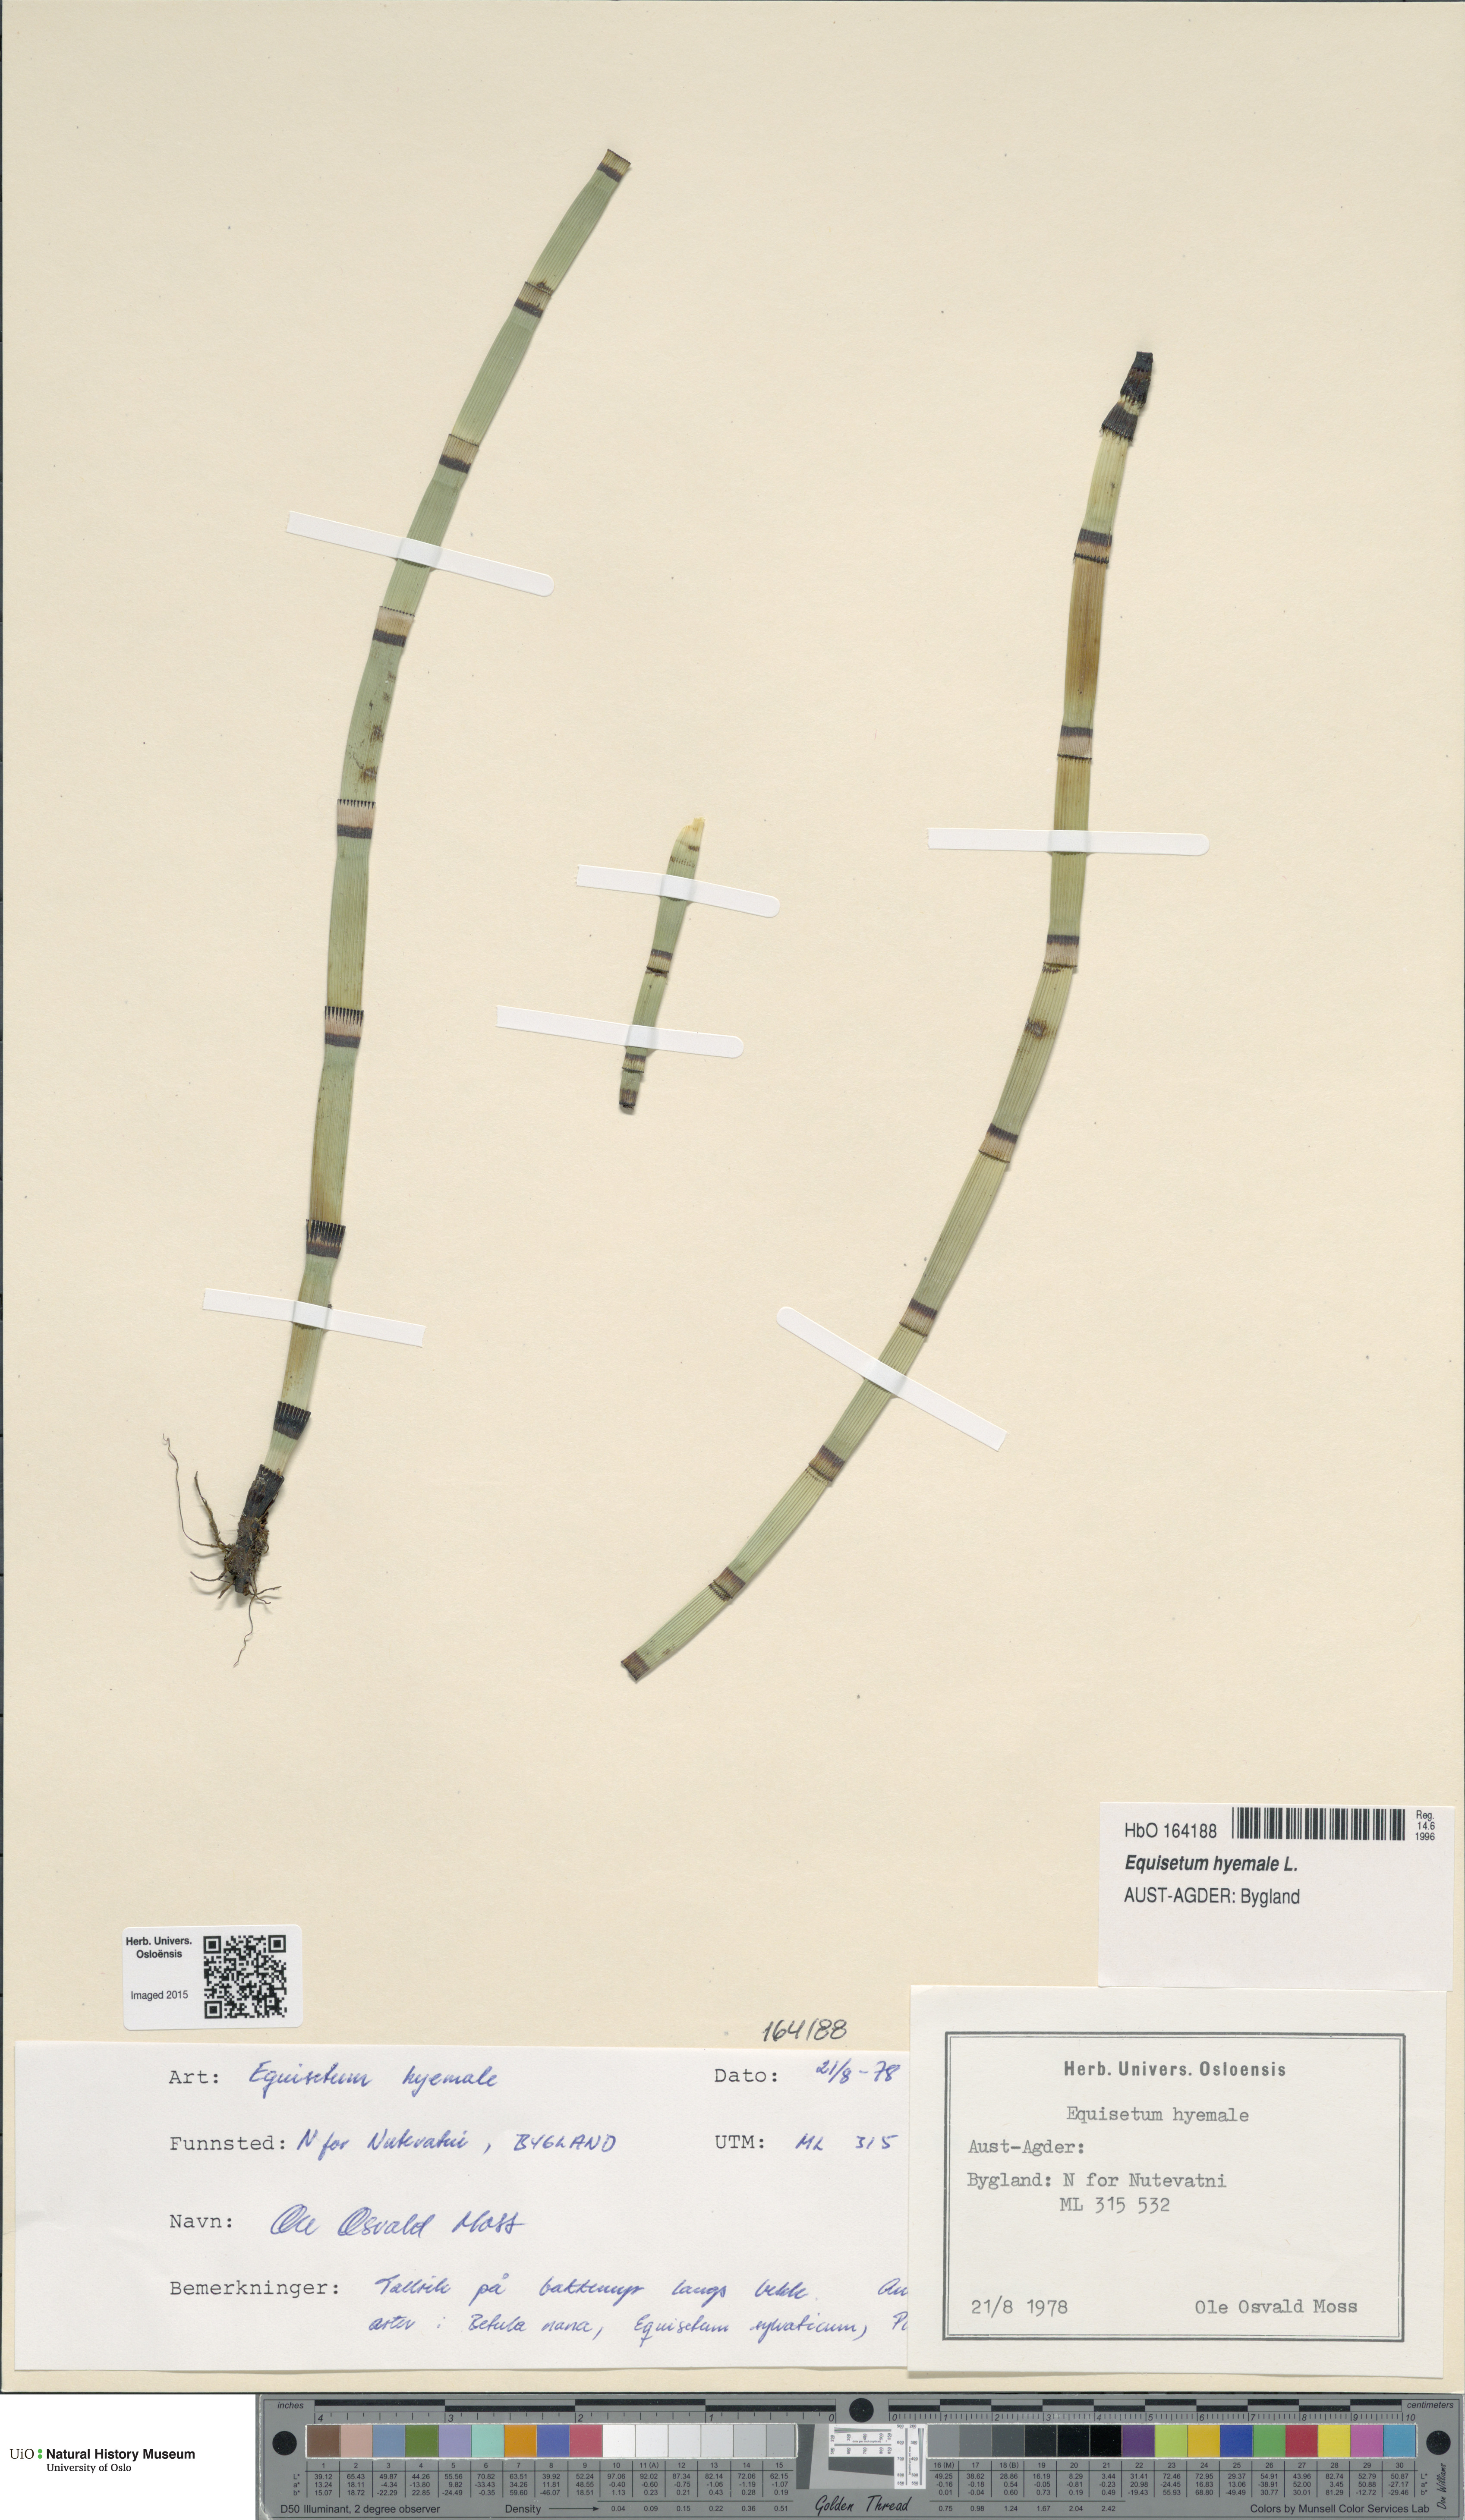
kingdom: Plantae
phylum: Tracheophyta
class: Polypodiopsida
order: Equisetales
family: Equisetaceae
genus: Equisetum
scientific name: Equisetum hyemale
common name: Rough horsetail
